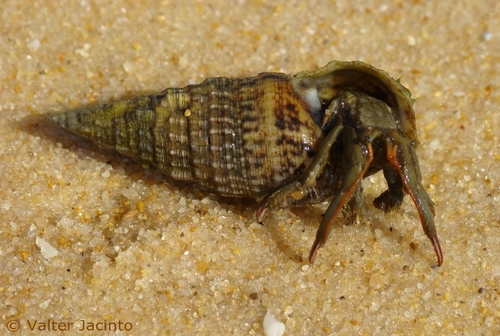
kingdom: Animalia
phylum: Mollusca
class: Gastropoda
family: Cerithiidae
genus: Cerithium
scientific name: Cerithium vulgatum
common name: European cerith
